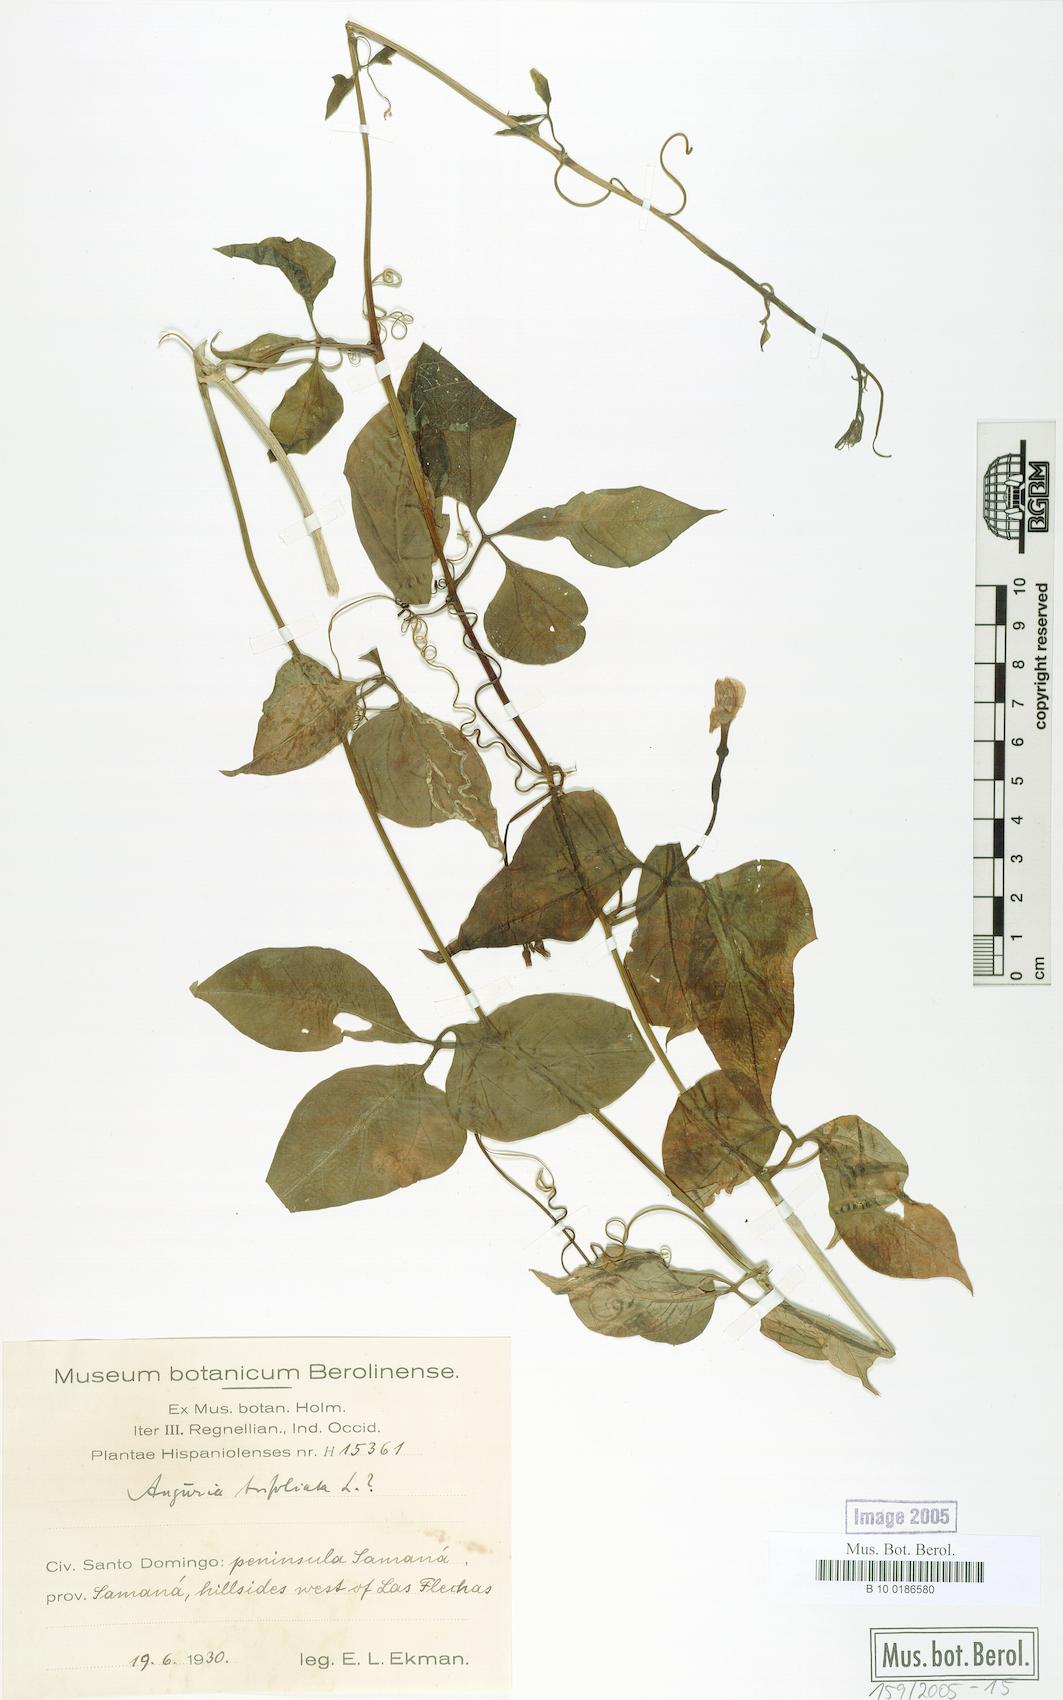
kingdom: Plantae
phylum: Tracheophyta
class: Magnoliopsida
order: Cucurbitales
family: Cucurbitaceae
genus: Gurania
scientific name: Gurania
